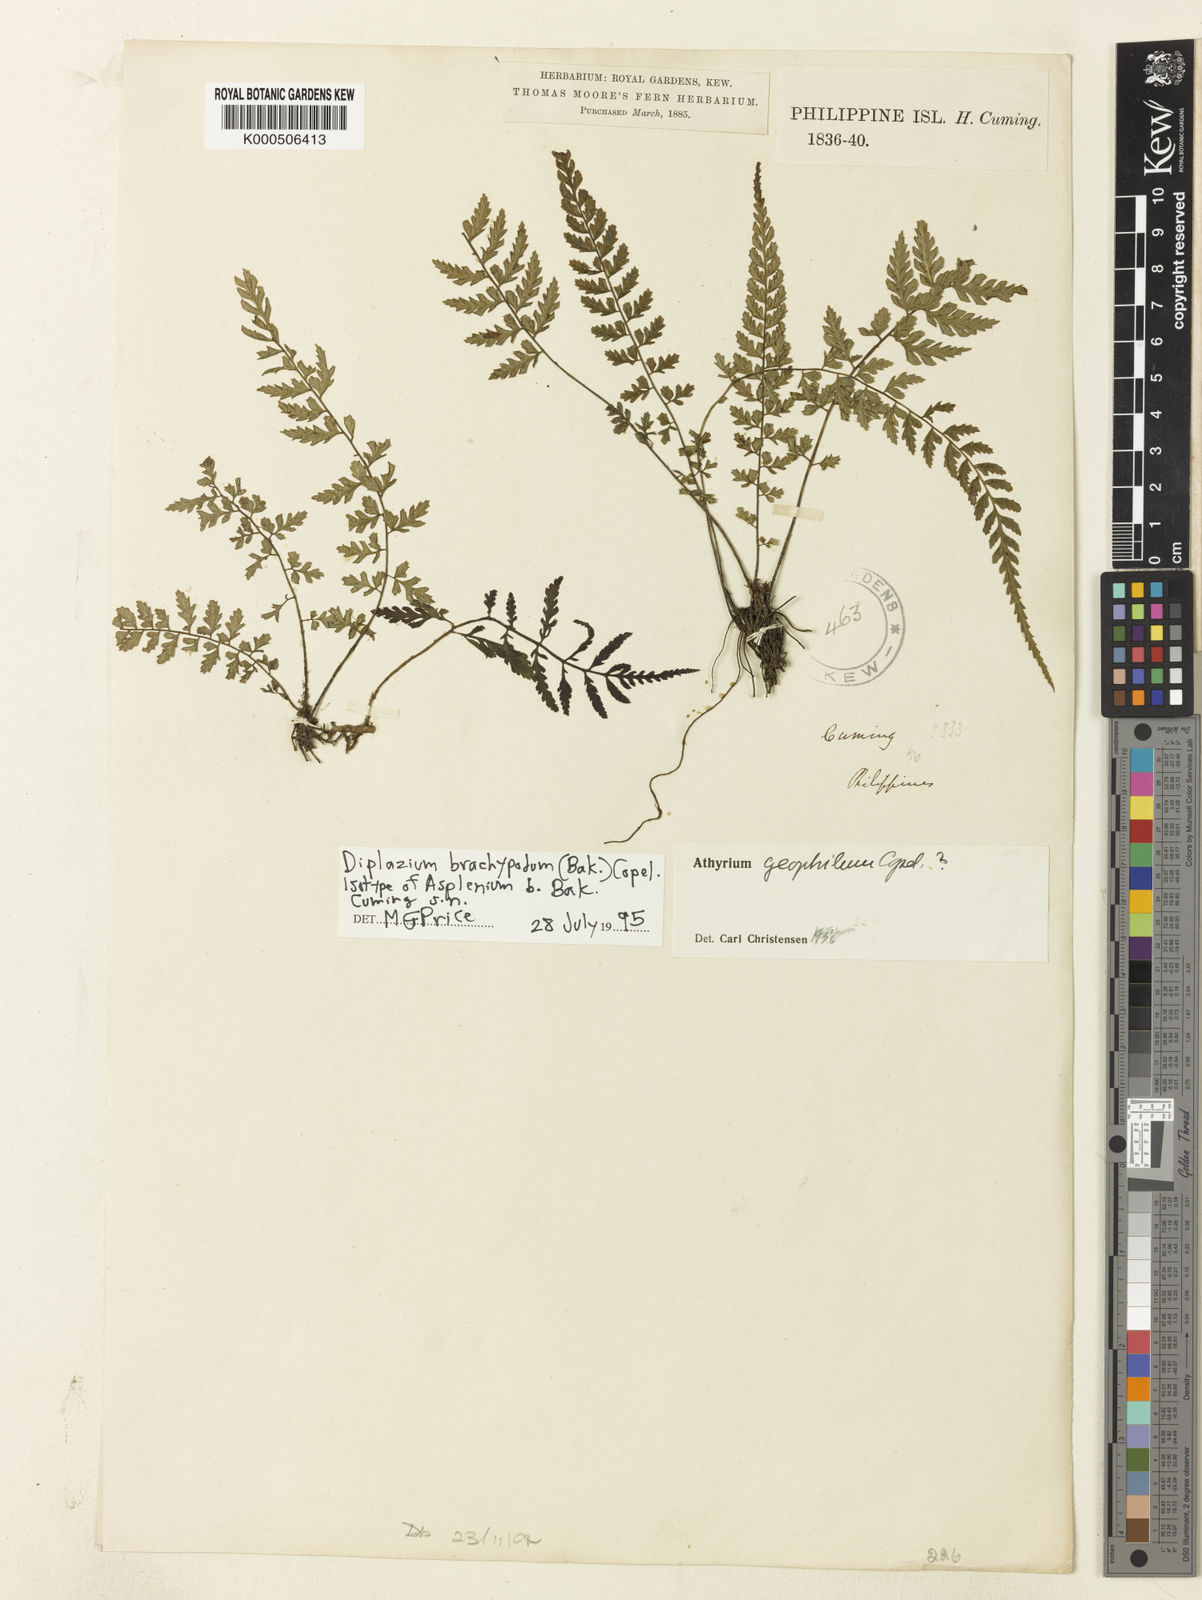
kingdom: Plantae
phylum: Tracheophyta
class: Polypodiopsida
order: Polypodiales
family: Athyriaceae
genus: Deparia
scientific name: Deparia confluens
